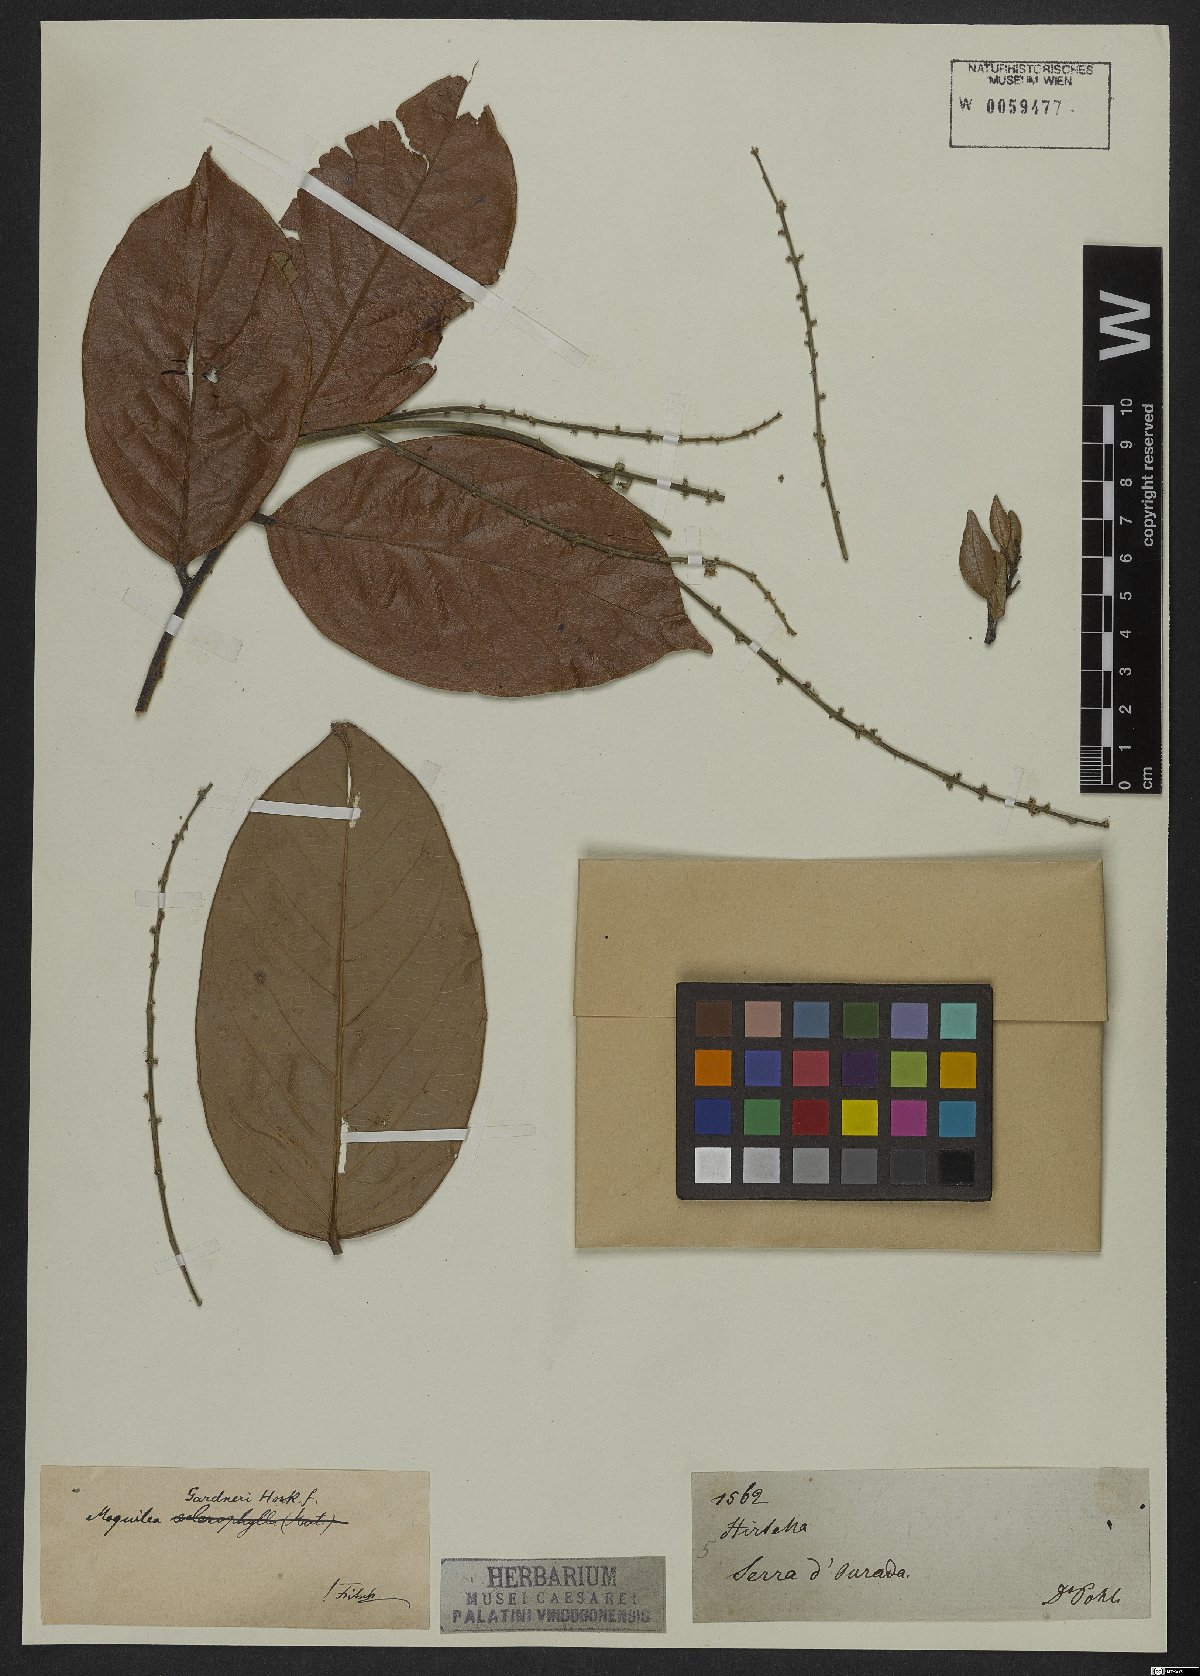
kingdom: Plantae
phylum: Tracheophyta
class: Magnoliopsida
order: Malpighiales
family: Chrysobalanaceae
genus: Leptobalanus
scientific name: Leptobalanus gardneri
